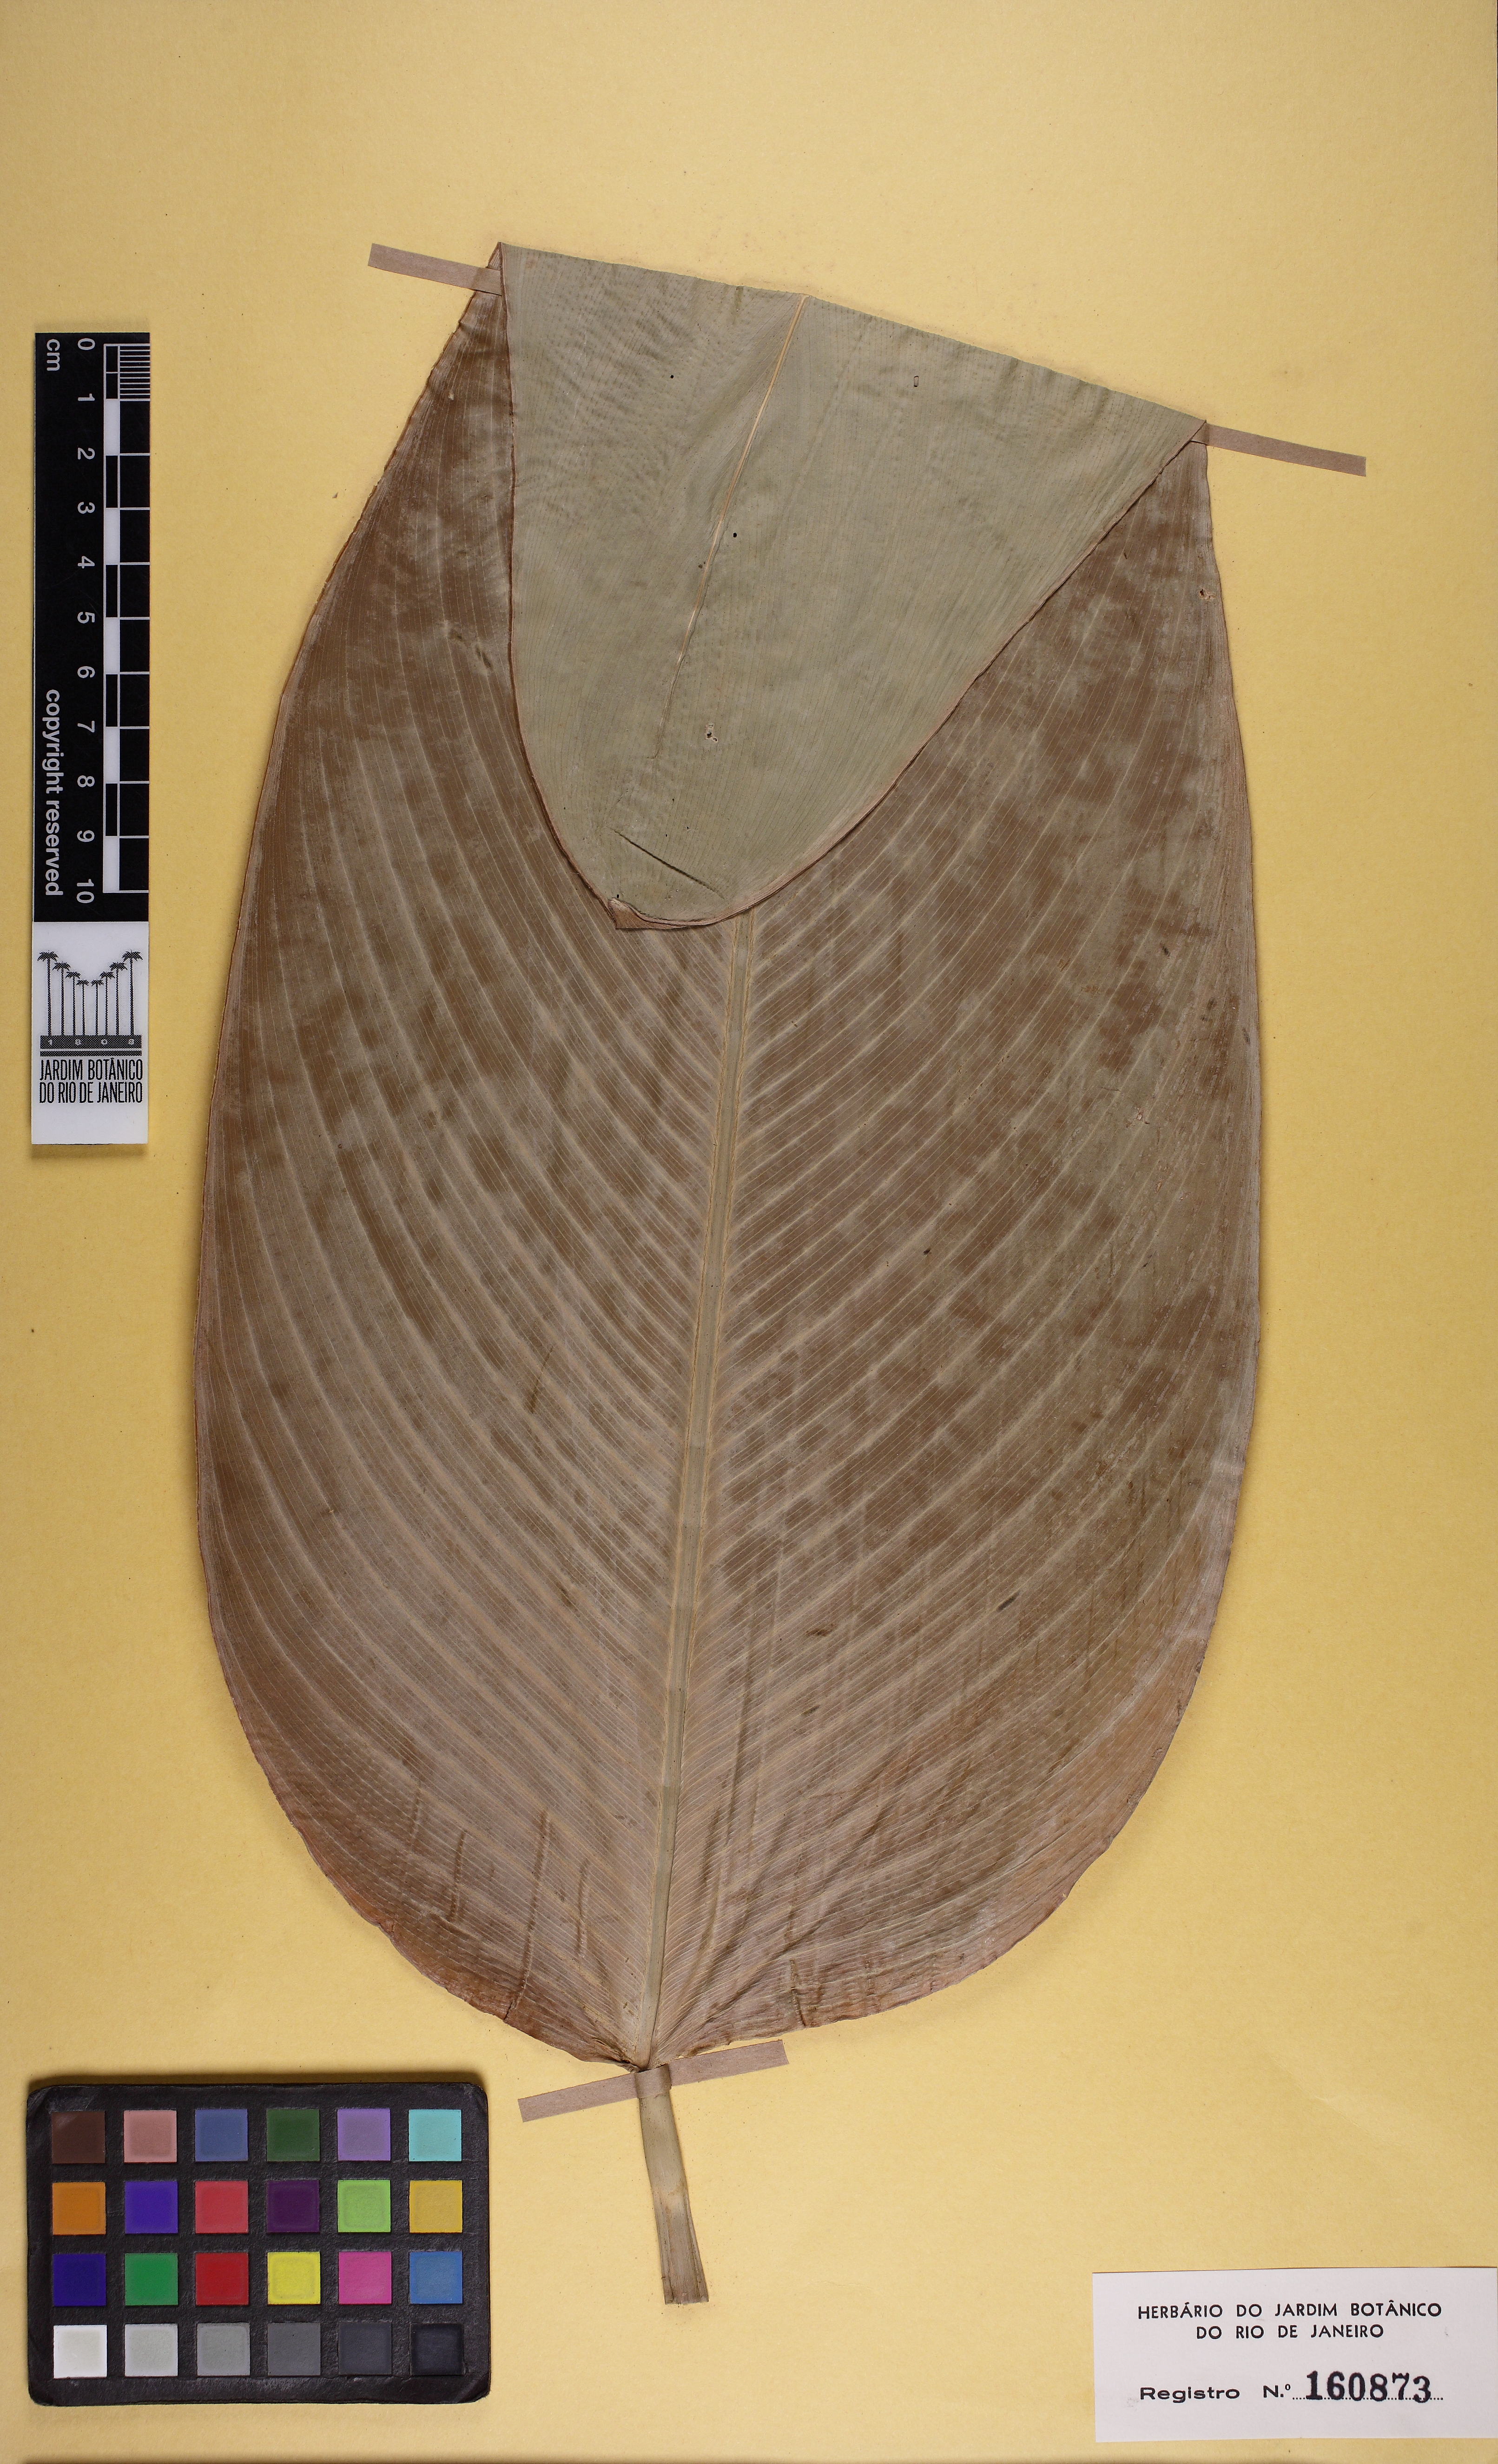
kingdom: Plantae
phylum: Tracheophyta
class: Liliopsida
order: Zingiberales
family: Marantaceae
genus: Thalia
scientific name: Thalia
